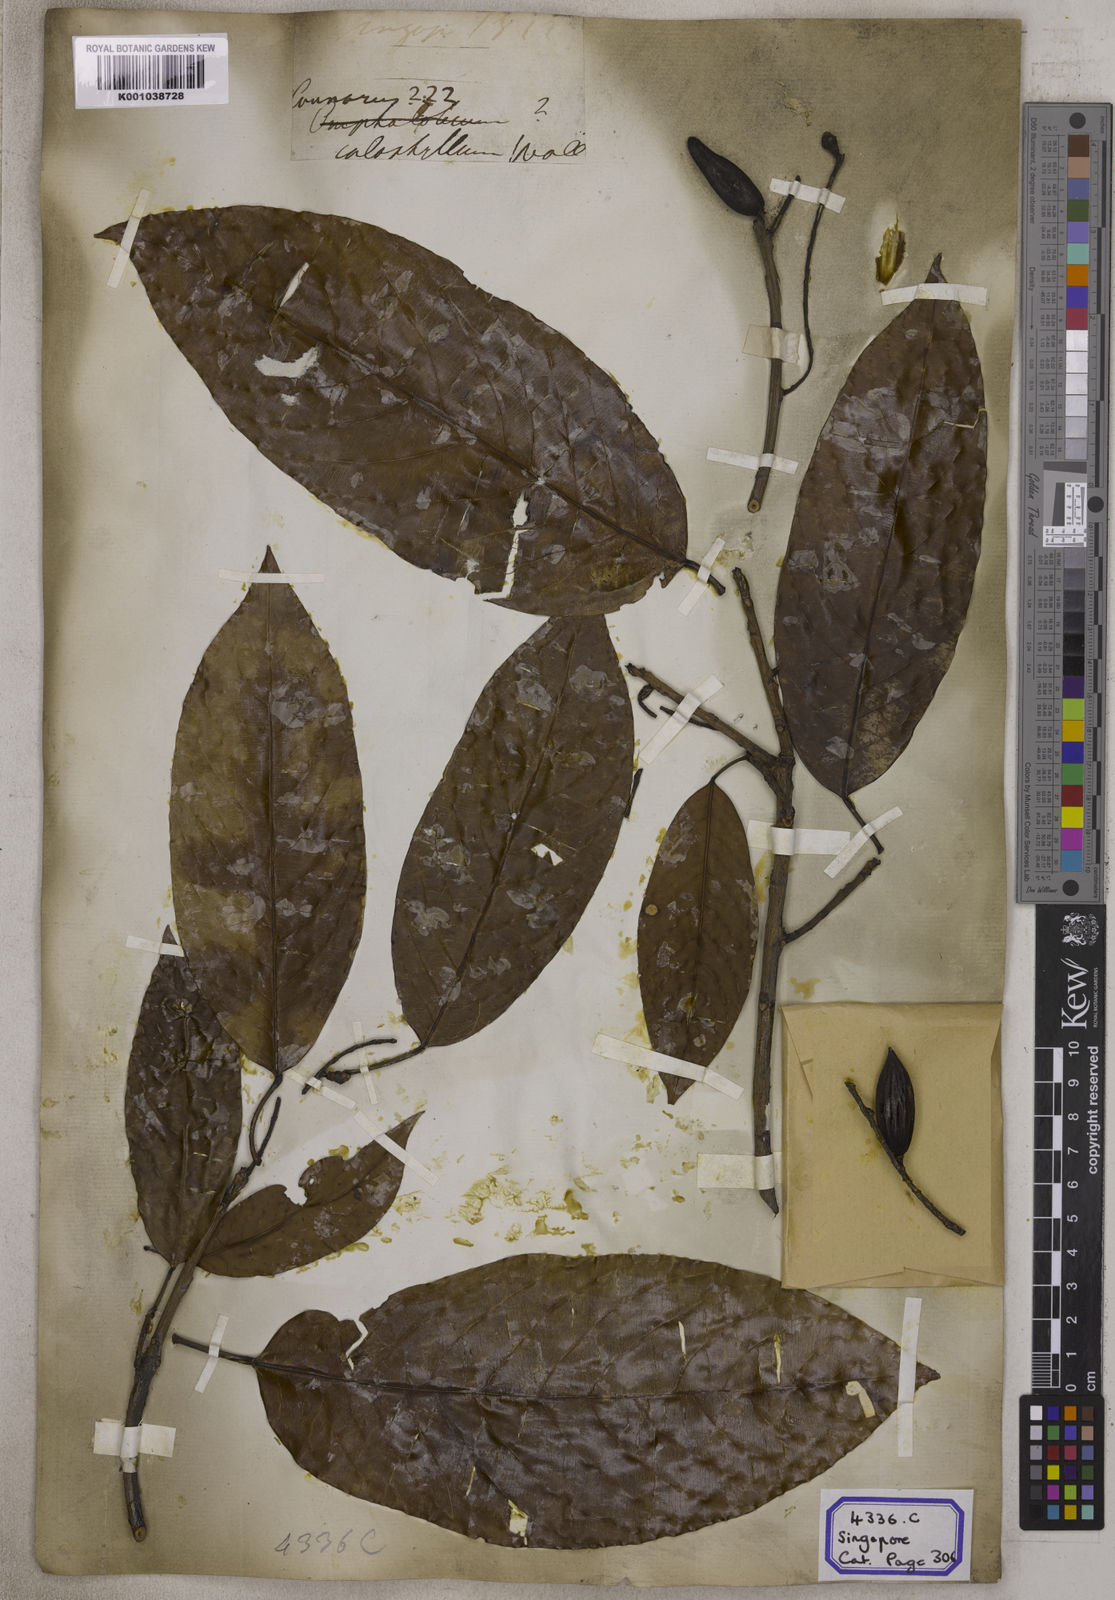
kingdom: Plantae
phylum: Tracheophyta
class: Magnoliopsida
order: Escalloniales
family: Escalloniaceae
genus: Kurrimia
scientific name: Kurrimia
